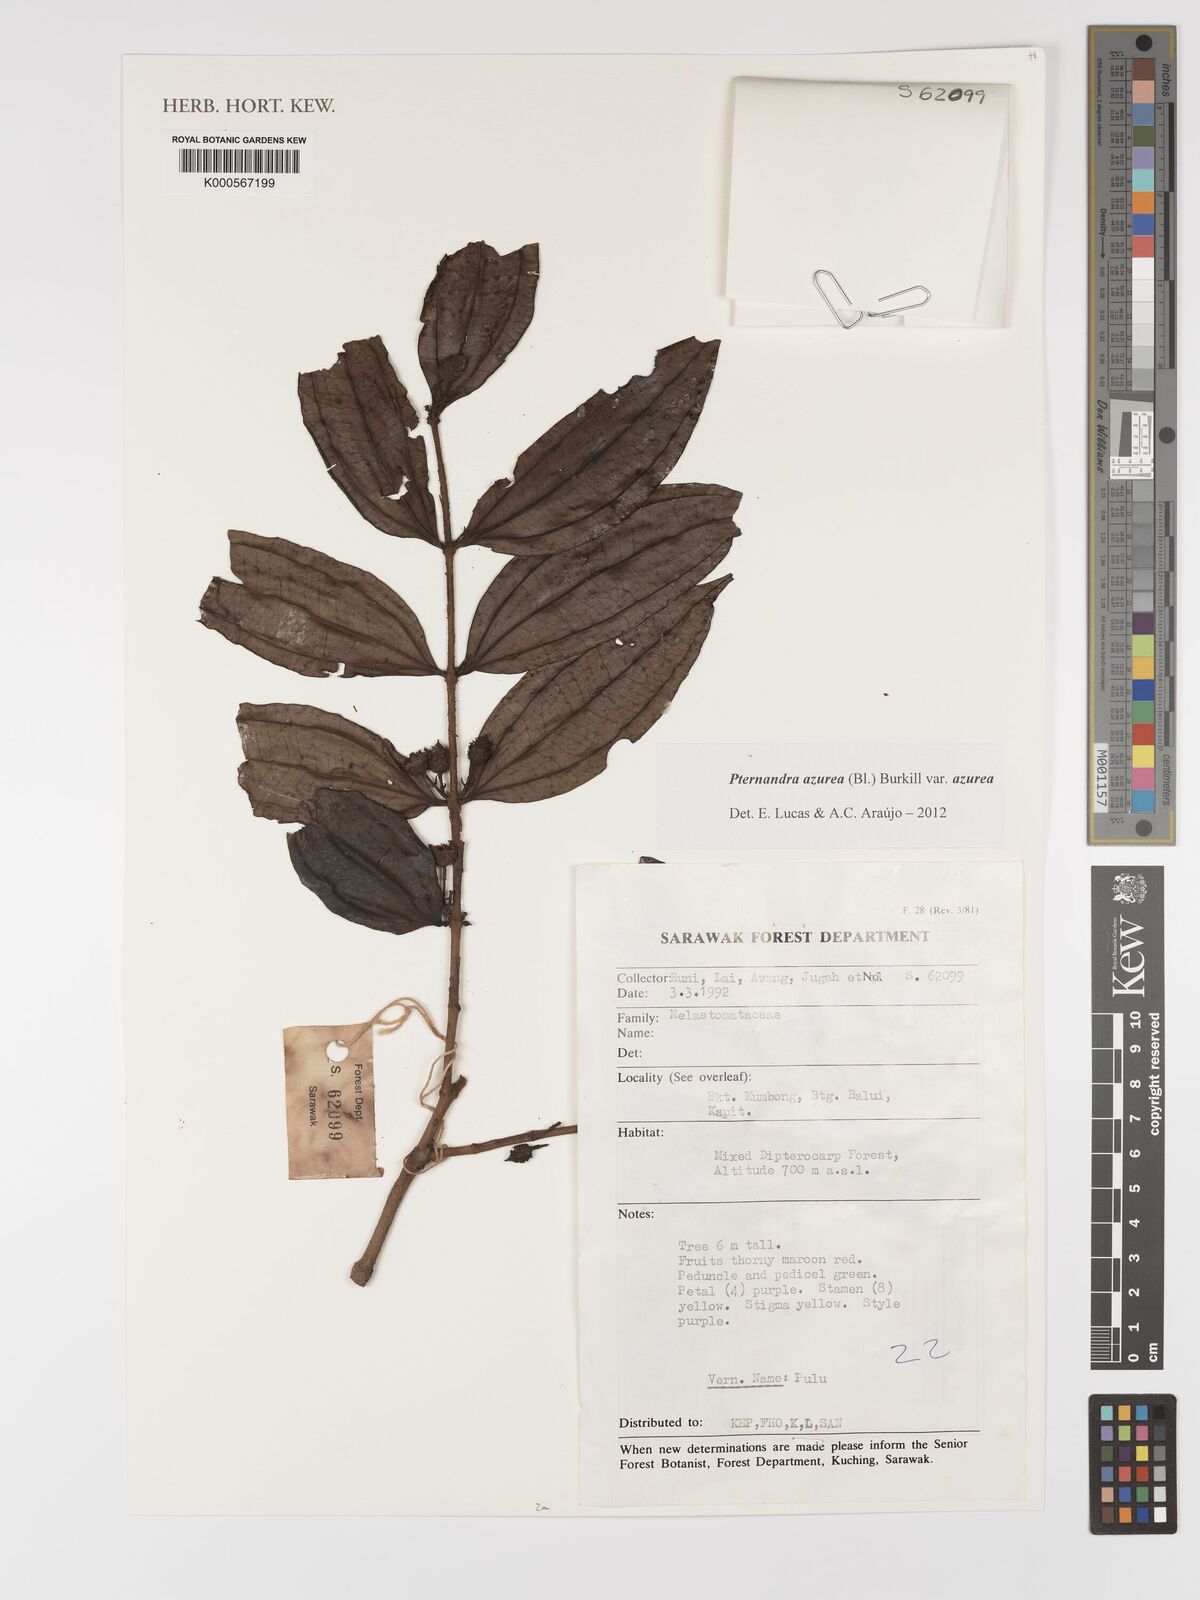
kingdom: Plantae
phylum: Tracheophyta
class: Magnoliopsida
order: Myrtales
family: Melastomataceae
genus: Pternandra
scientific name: Pternandra azurea
